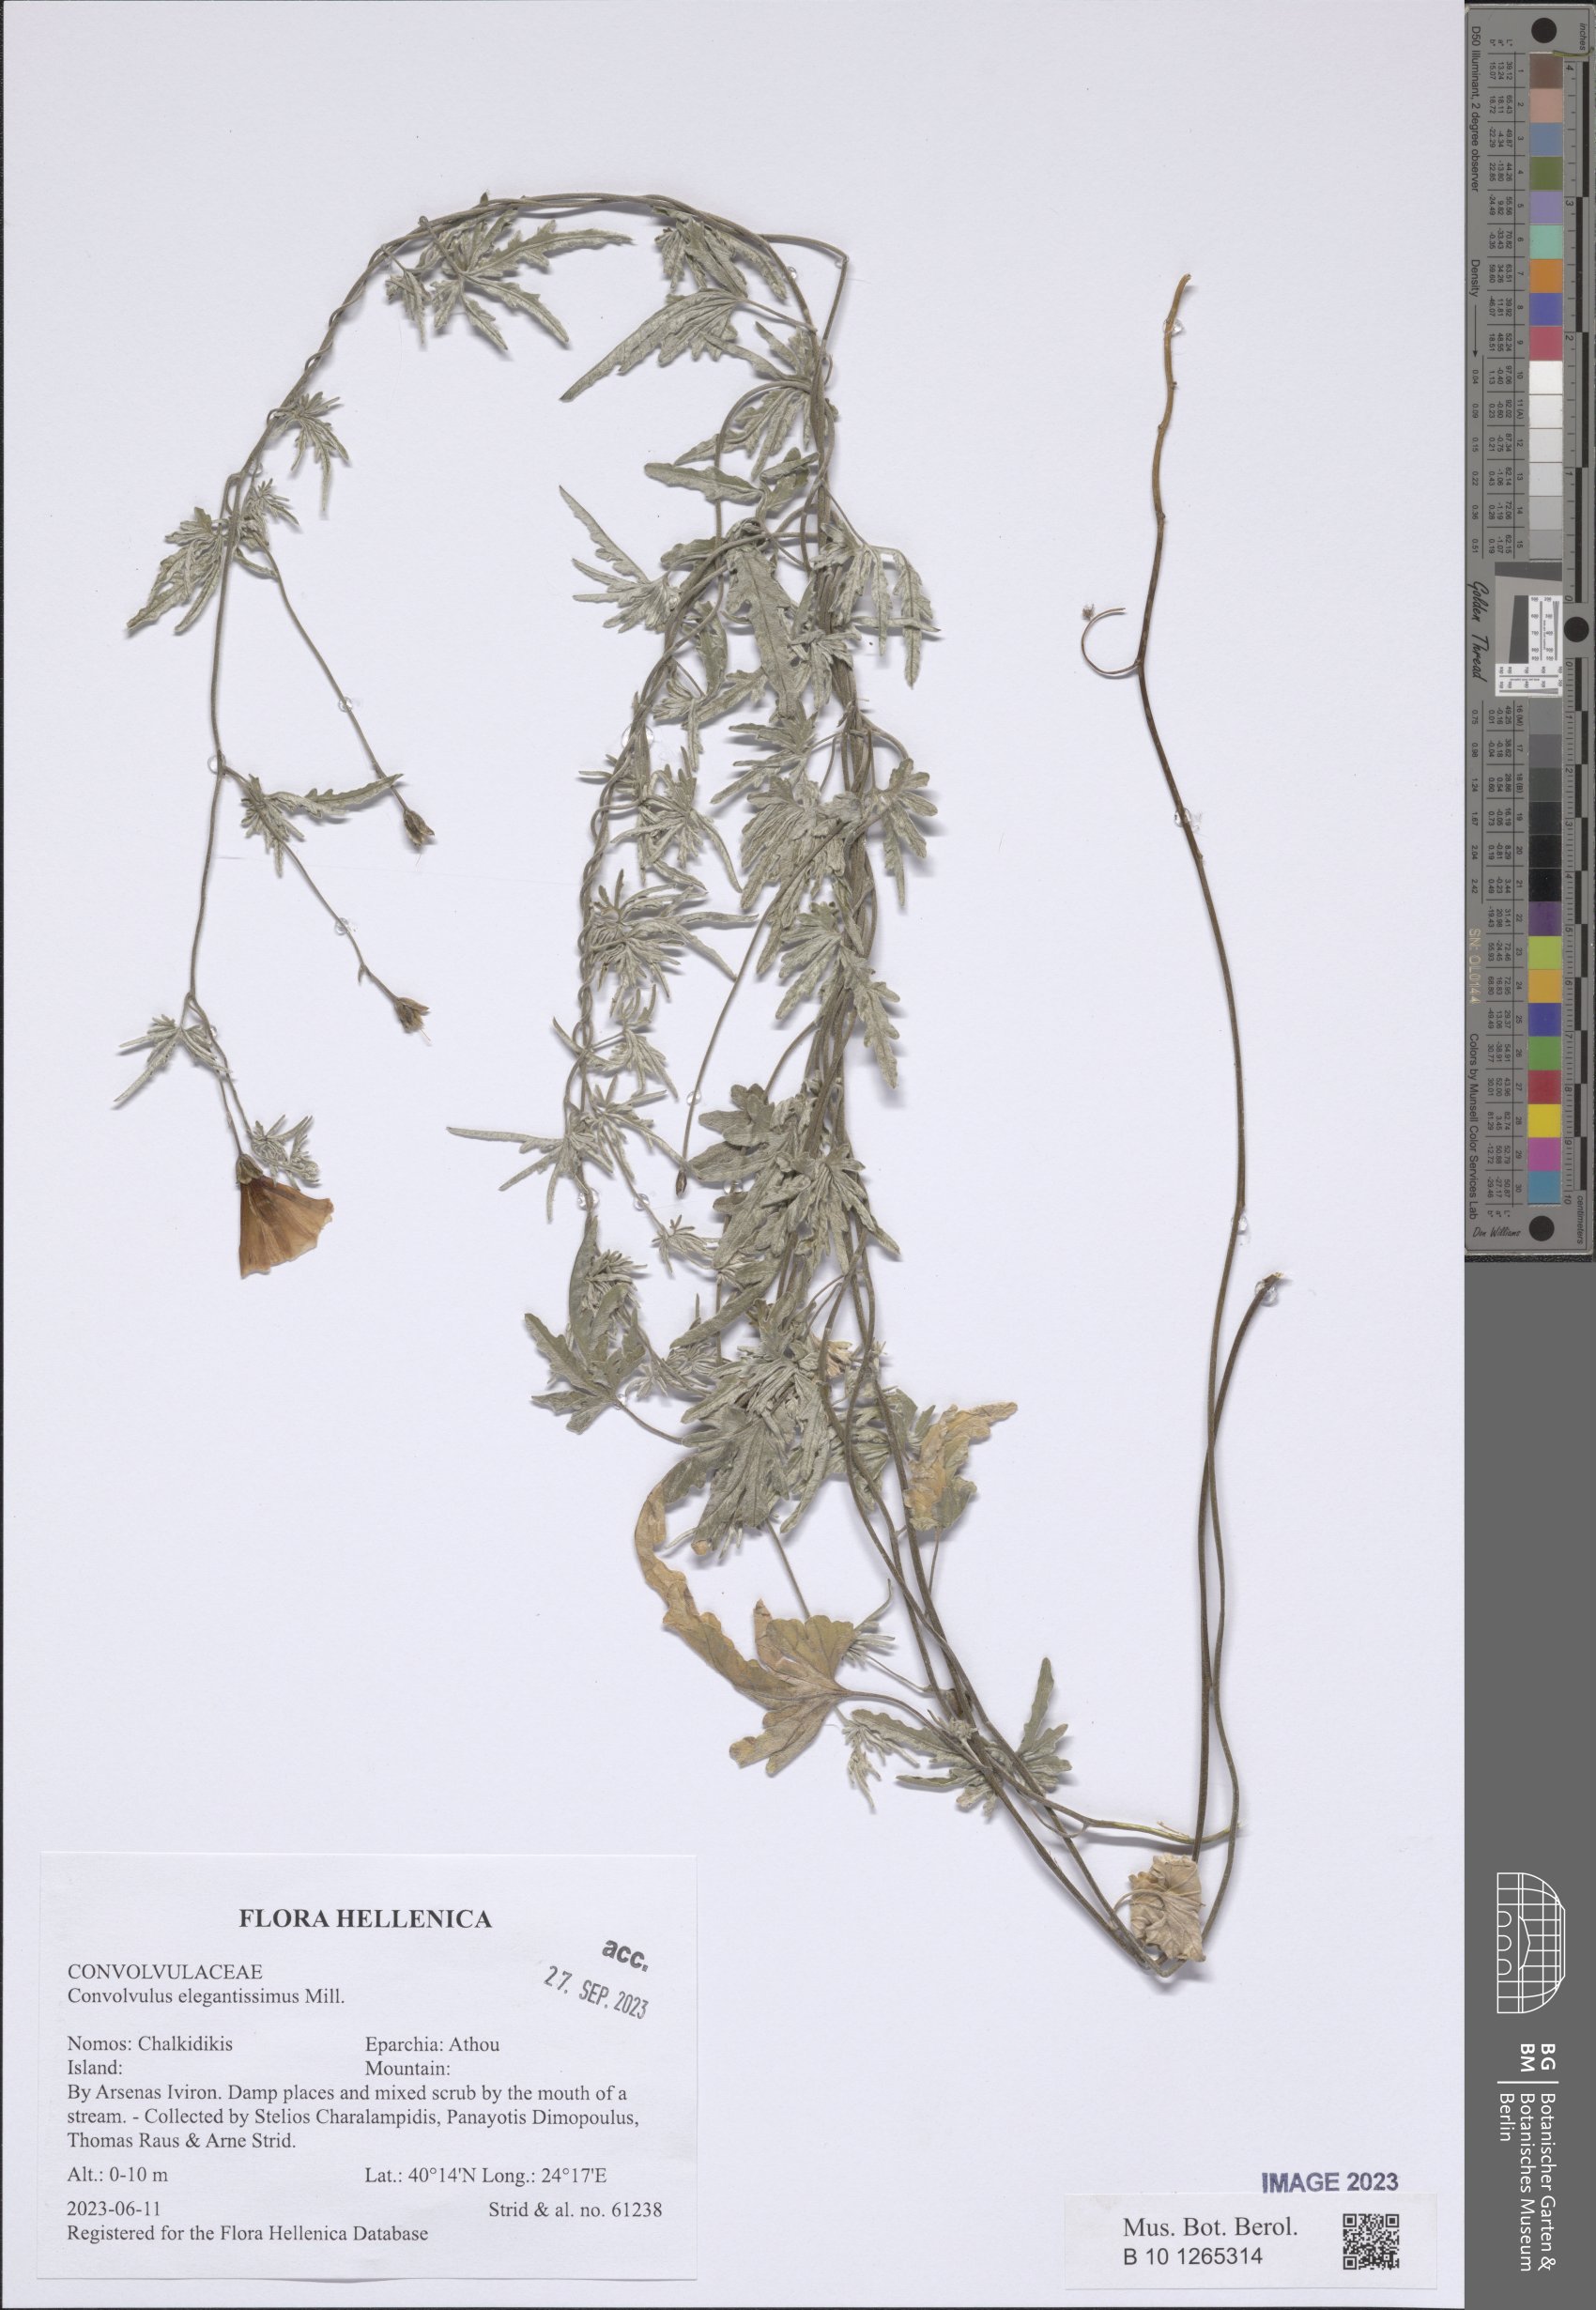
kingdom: Plantae
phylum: Tracheophyta
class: Magnoliopsida
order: Solanales
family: Convolvulaceae
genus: Convolvulus
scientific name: Convolvulus elegantissimus
